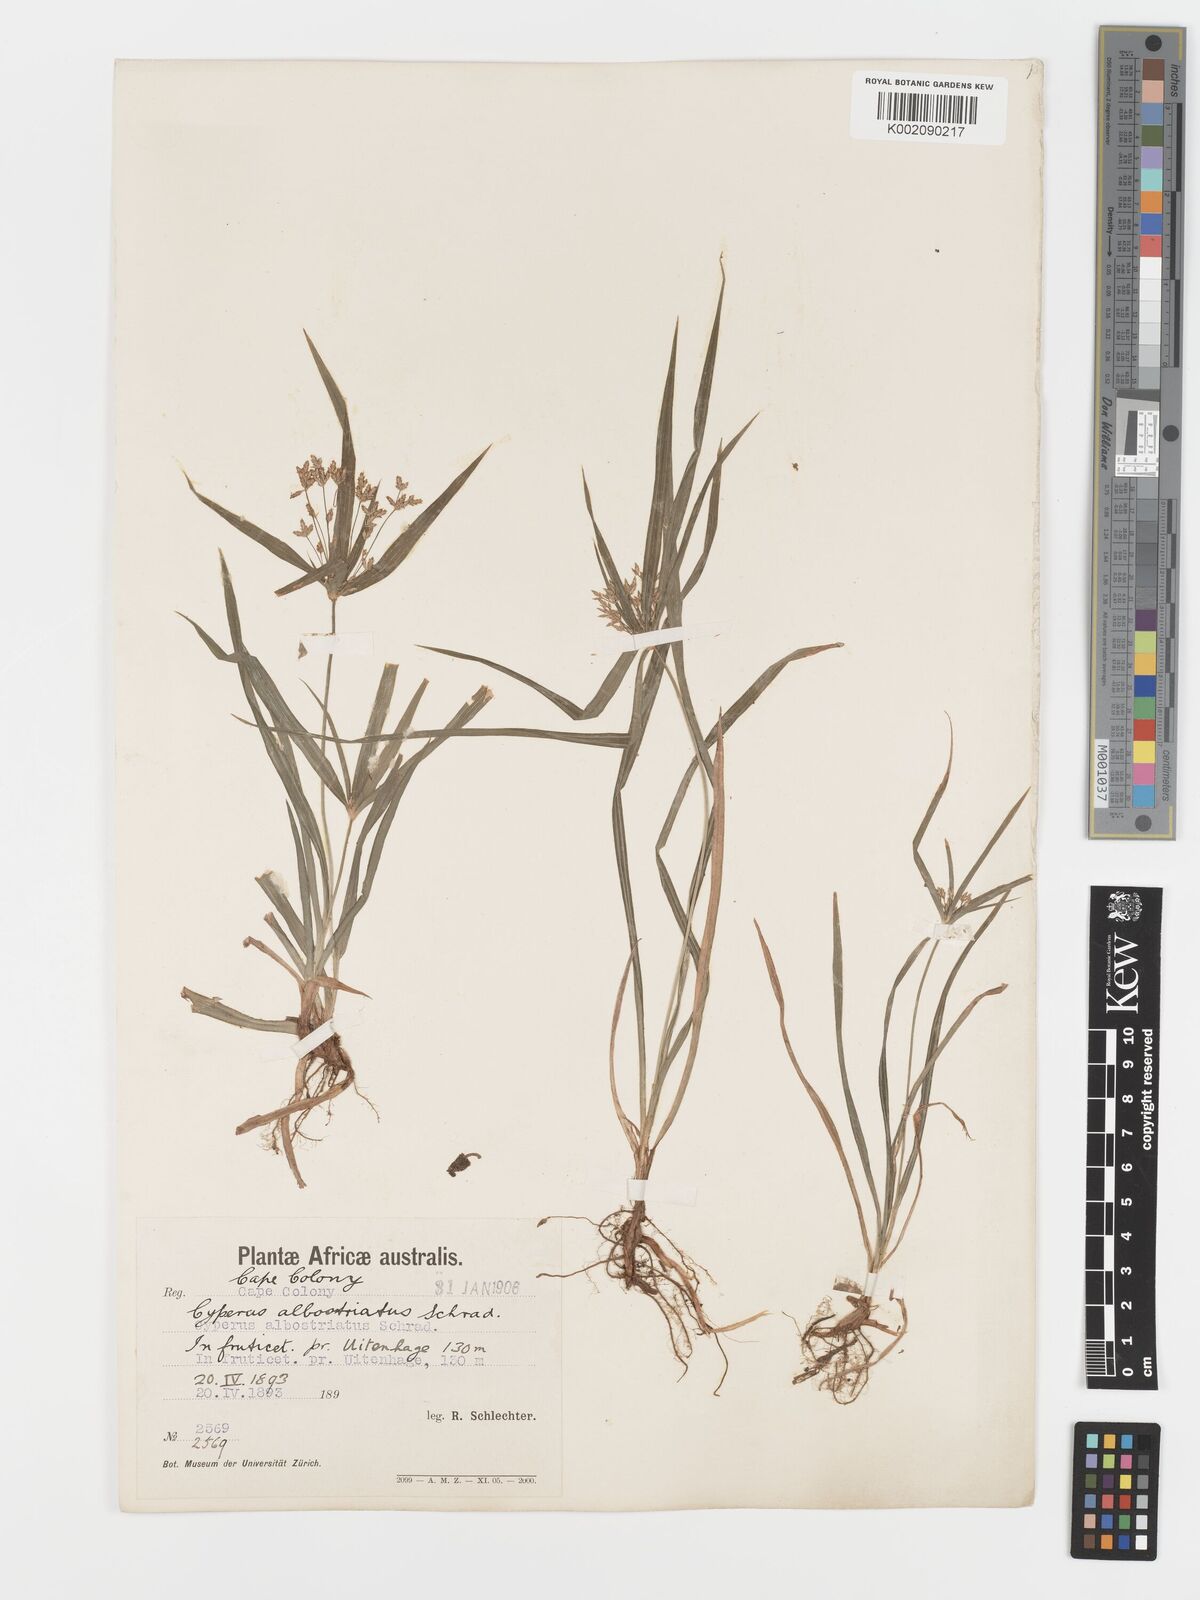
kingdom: Plantae
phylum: Tracheophyta
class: Liliopsida
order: Poales
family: Cyperaceae
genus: Cyperus
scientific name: Cyperus albostriatus
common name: Dwarf umbrella-grass
